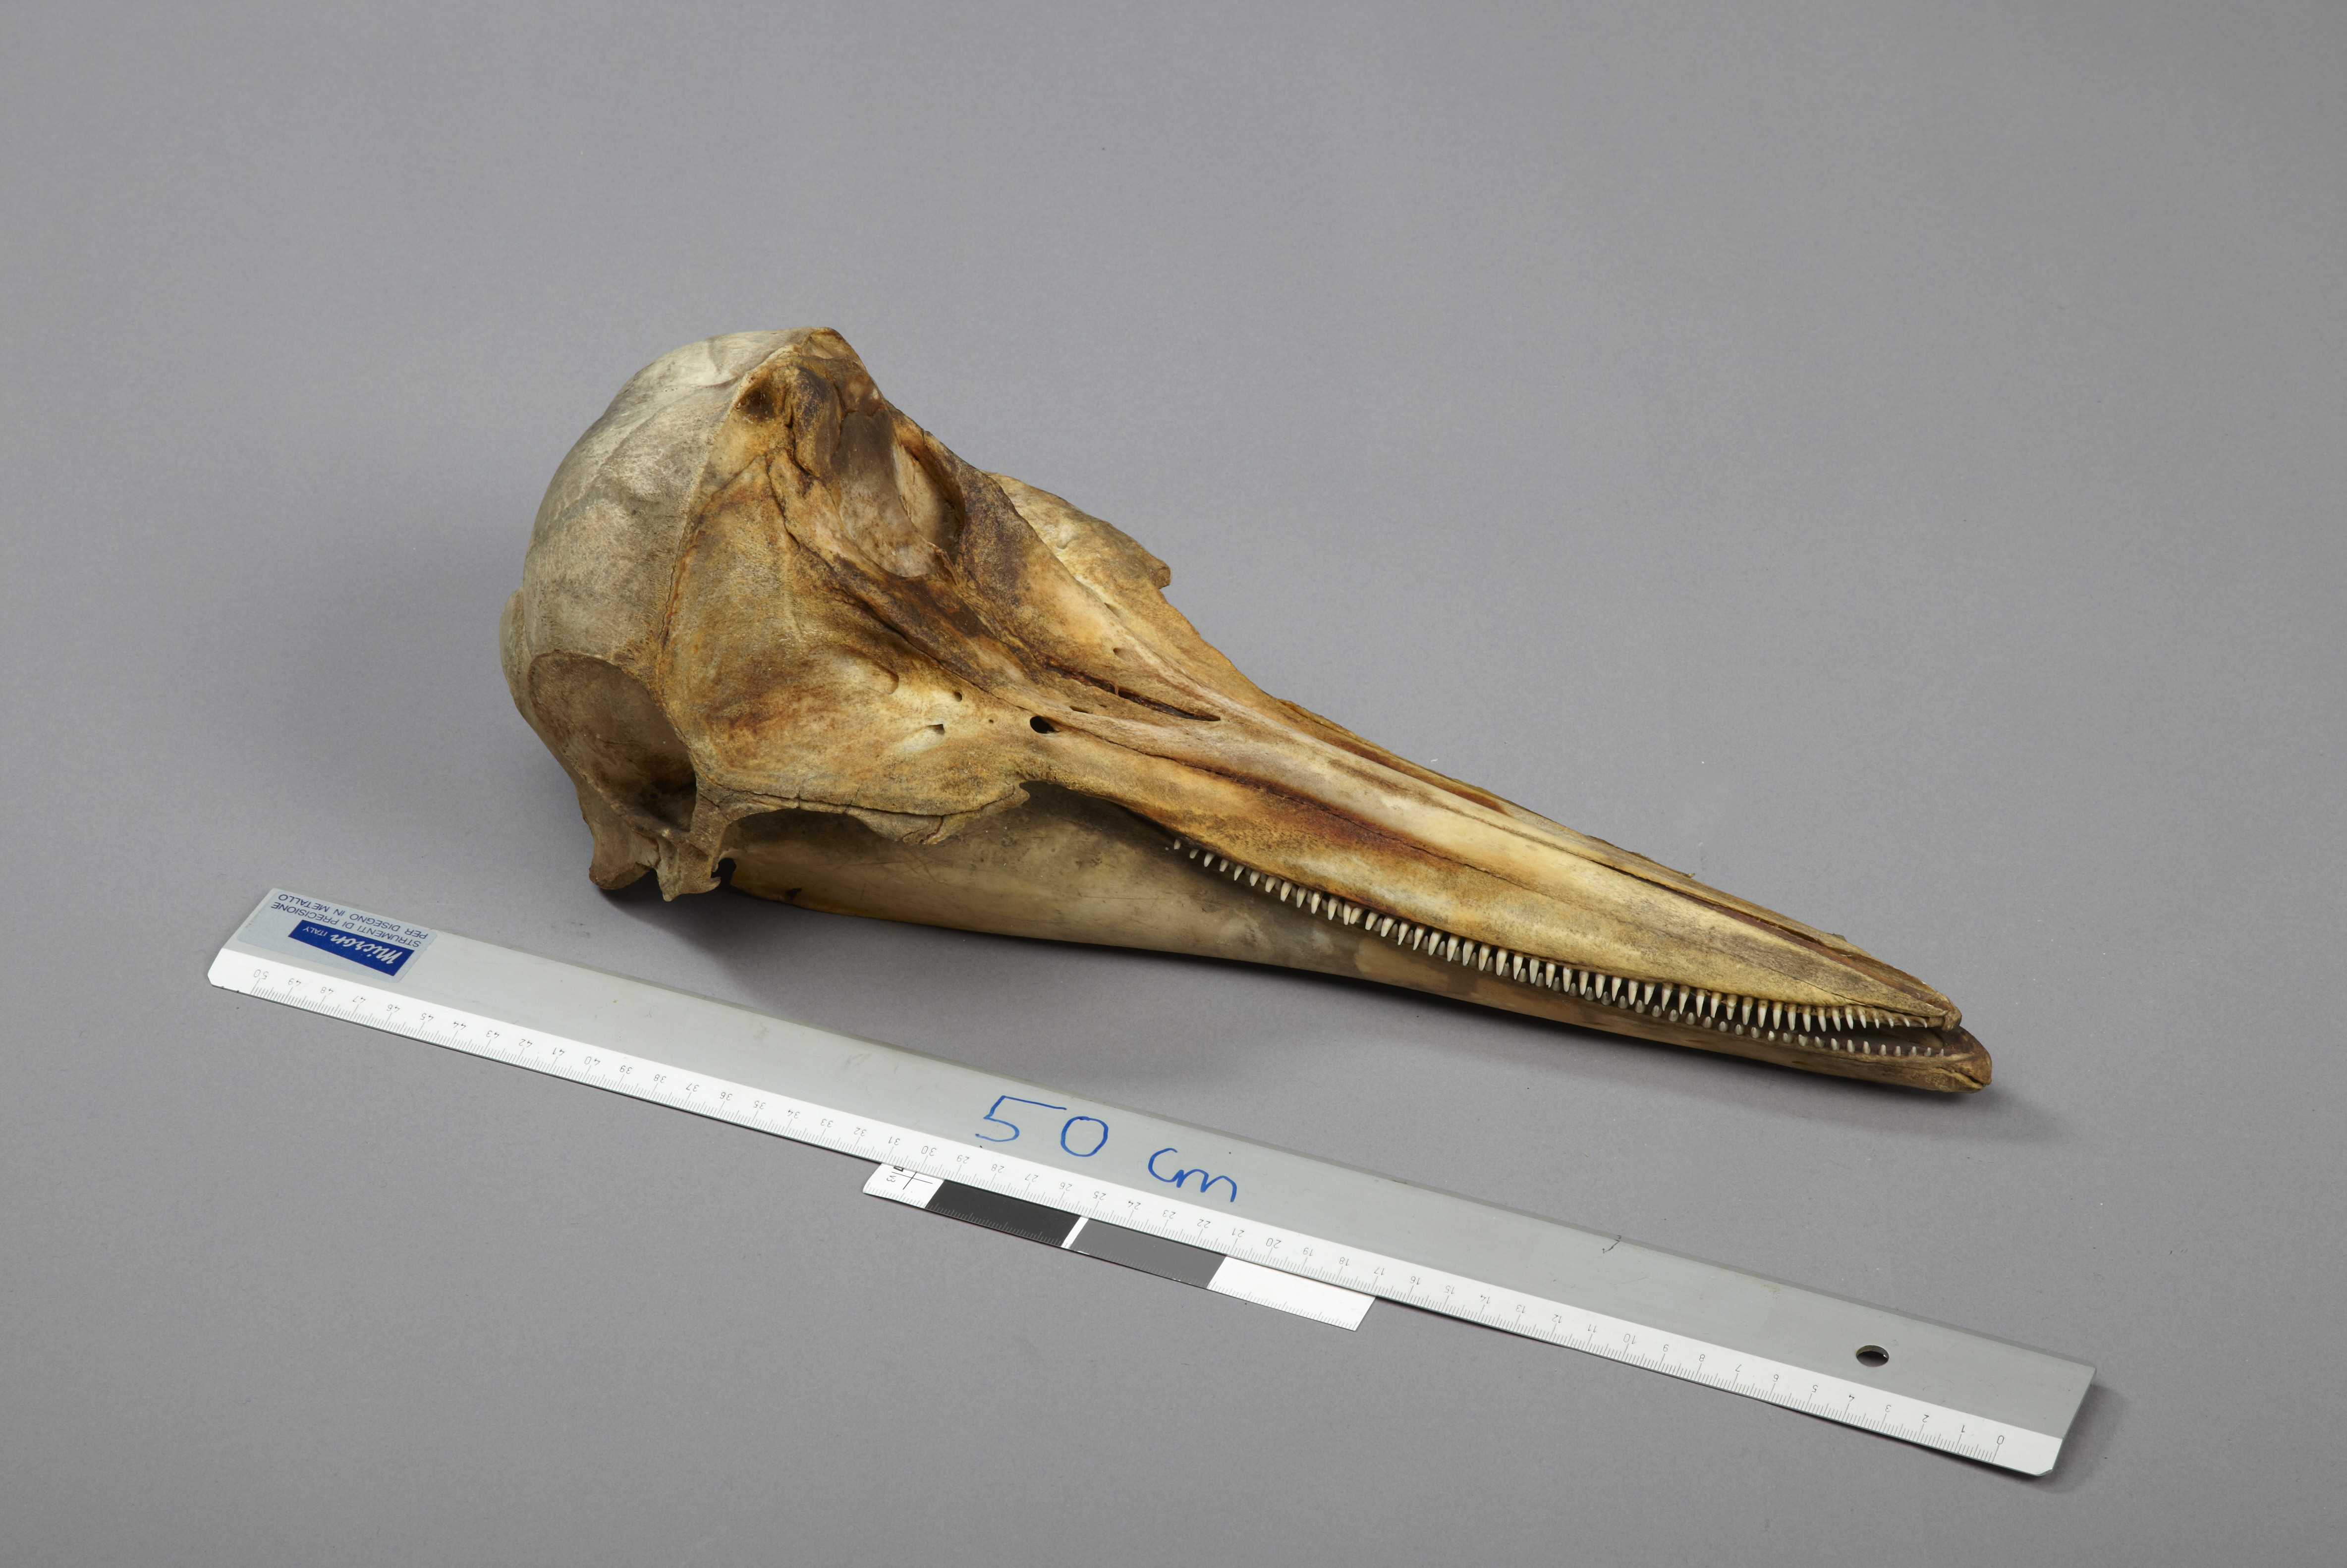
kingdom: Animalia
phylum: Chordata
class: Mammalia
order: Cetacea
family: Delphinidae
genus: Delphinus
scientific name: Delphinus delphis
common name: Common dolphin
